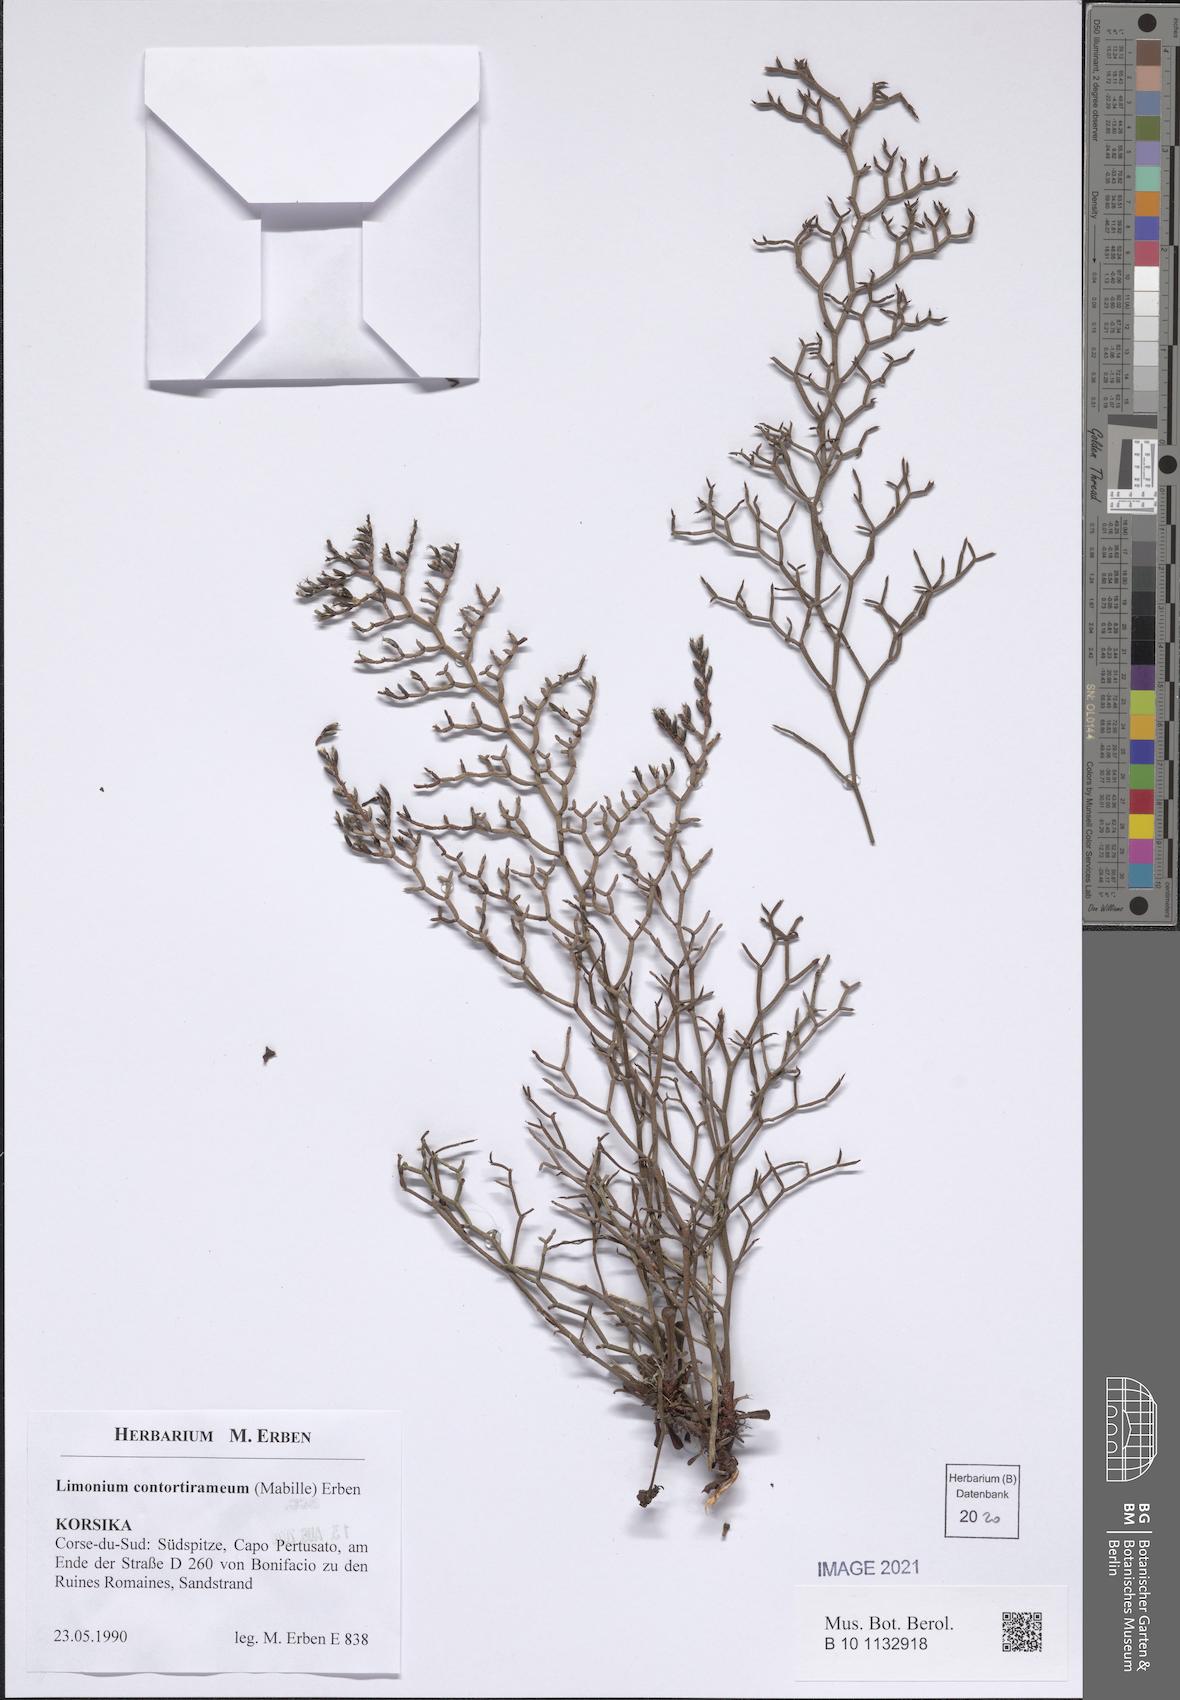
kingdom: Plantae
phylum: Tracheophyta
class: Magnoliopsida
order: Caryophyllales
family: Plumbaginaceae
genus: Limonium
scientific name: Limonium contortirameum
